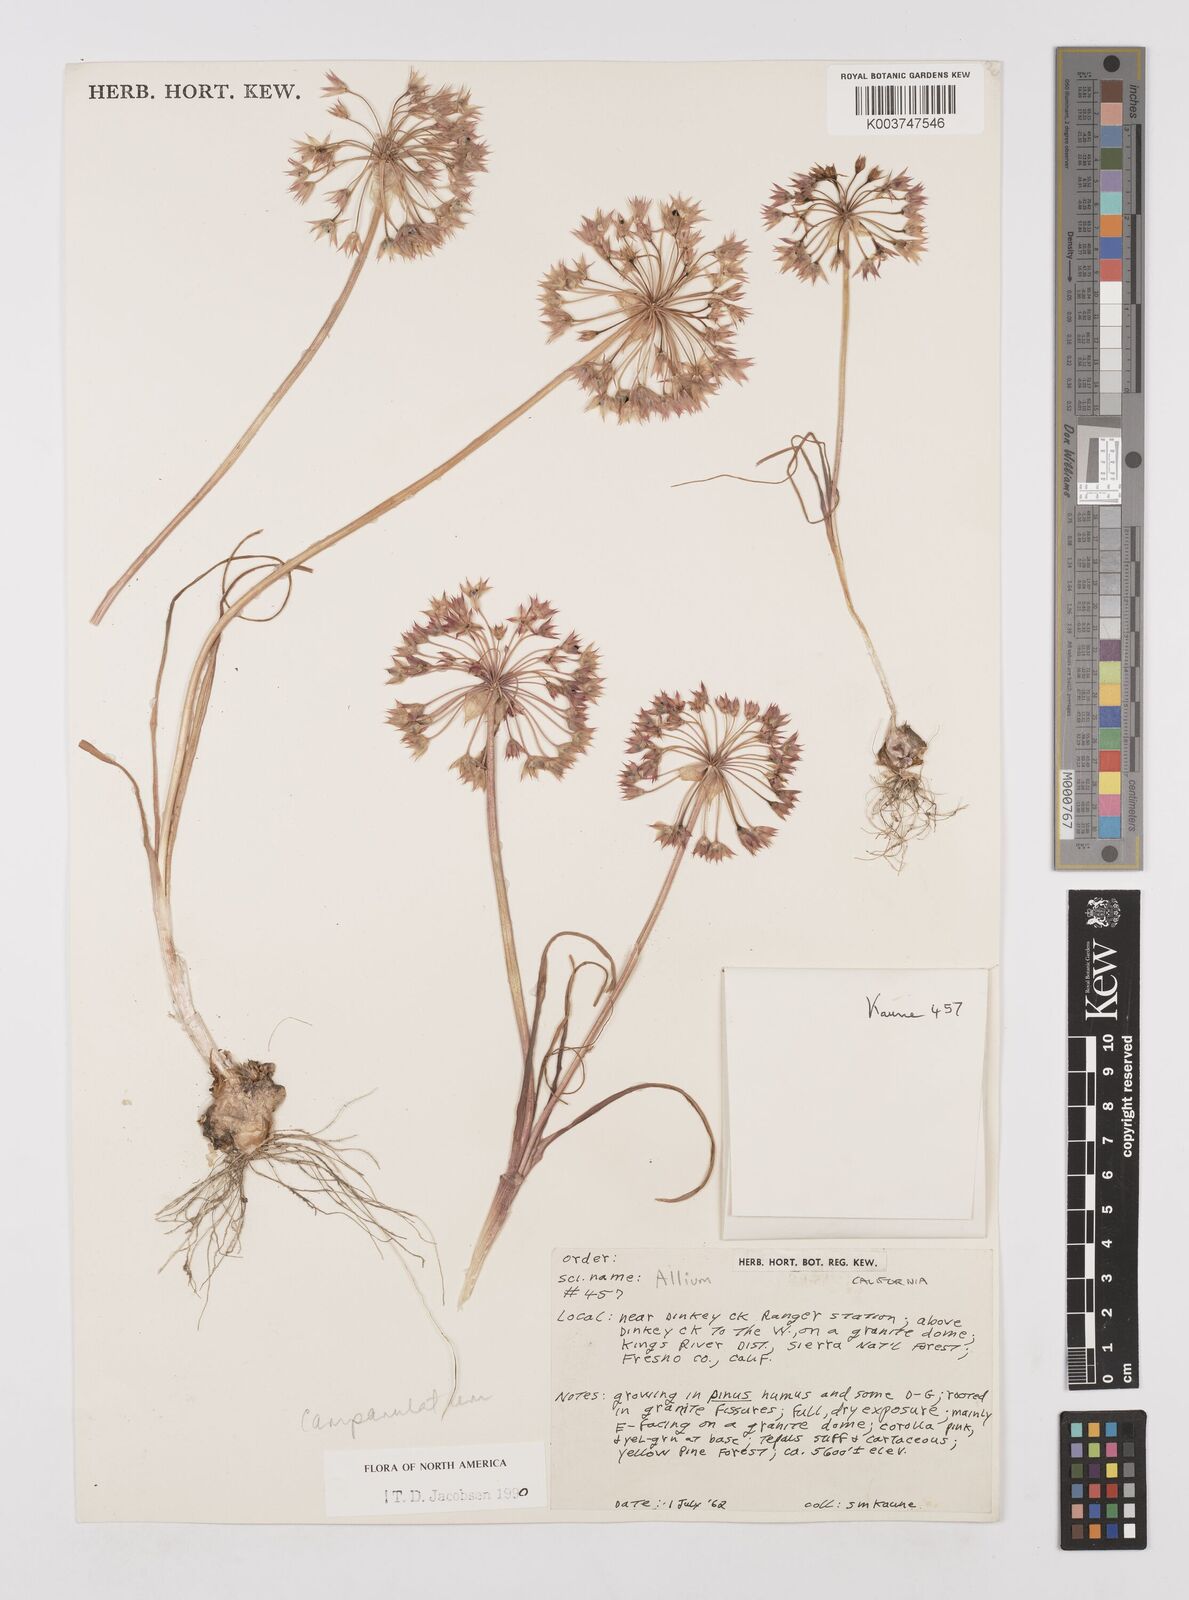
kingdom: Plantae
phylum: Tracheophyta
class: Liliopsida
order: Asparagales
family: Amaryllidaceae
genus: Allium
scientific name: Allium campanulatum
